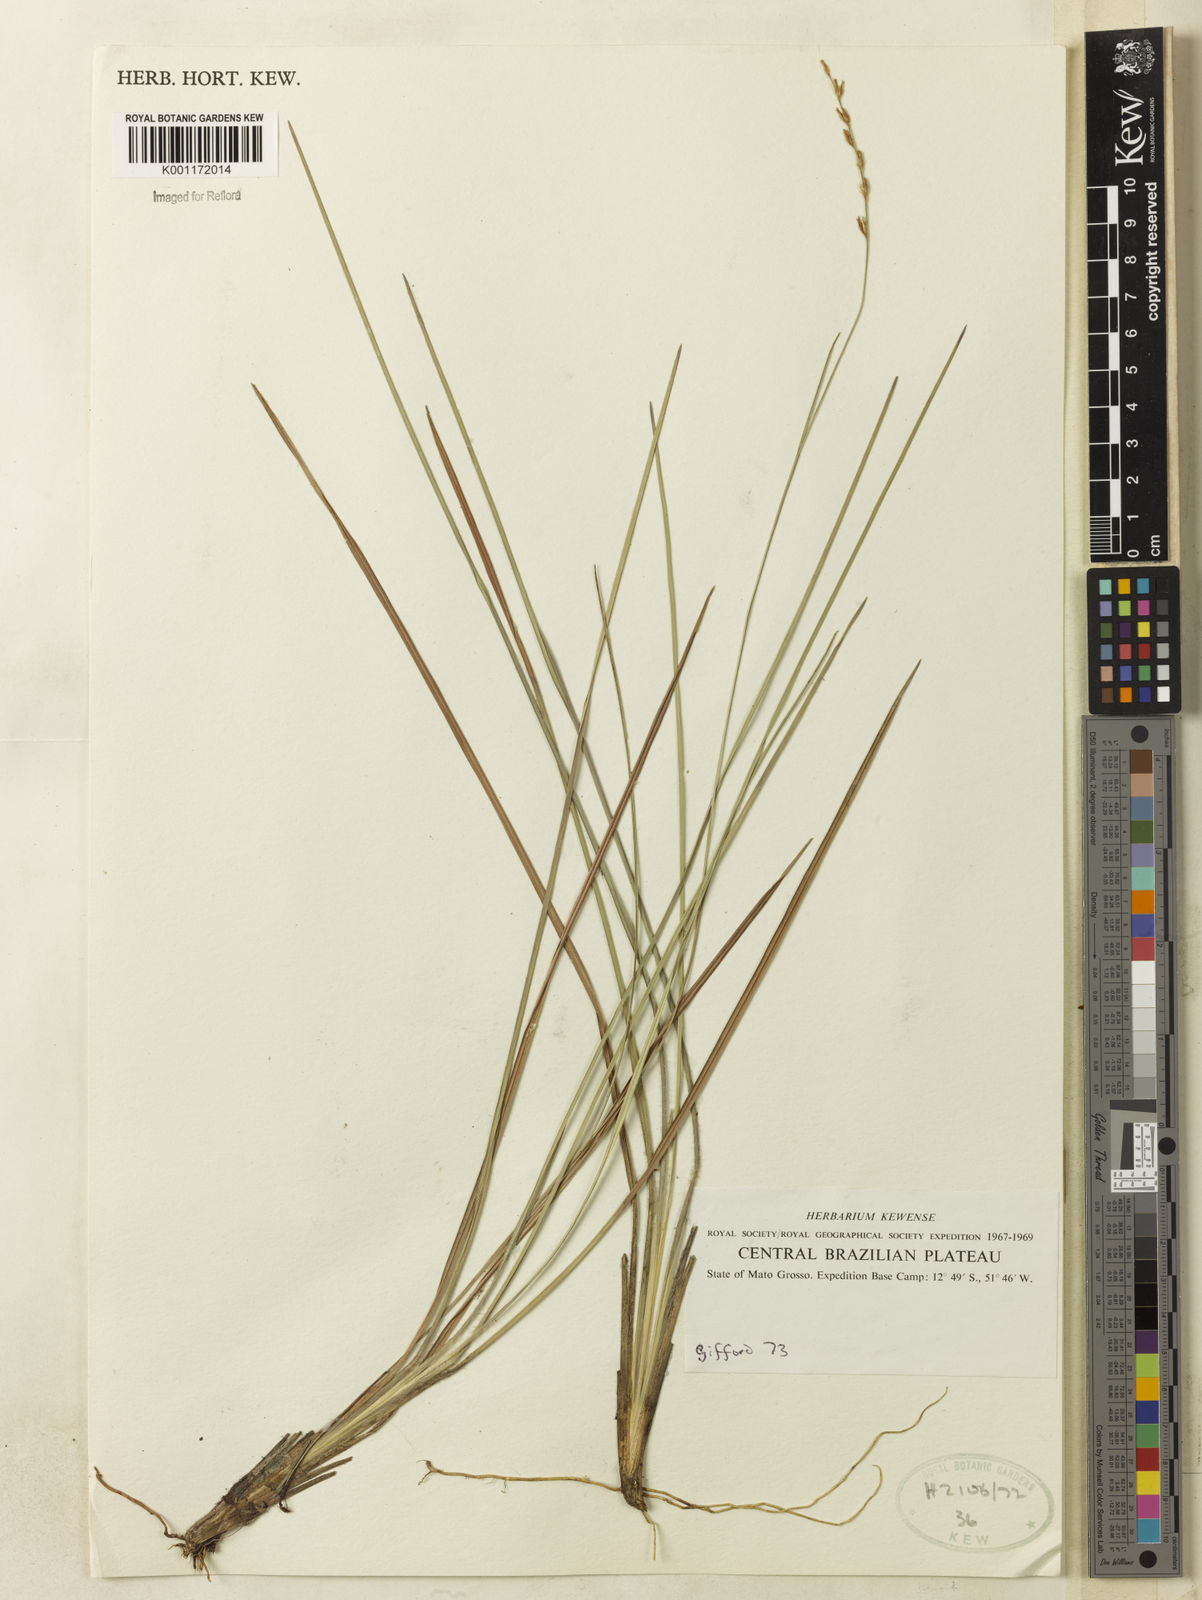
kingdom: Plantae
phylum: Tracheophyta
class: Liliopsida
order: Poales
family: Cyperaceae
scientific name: Cyperaceae
